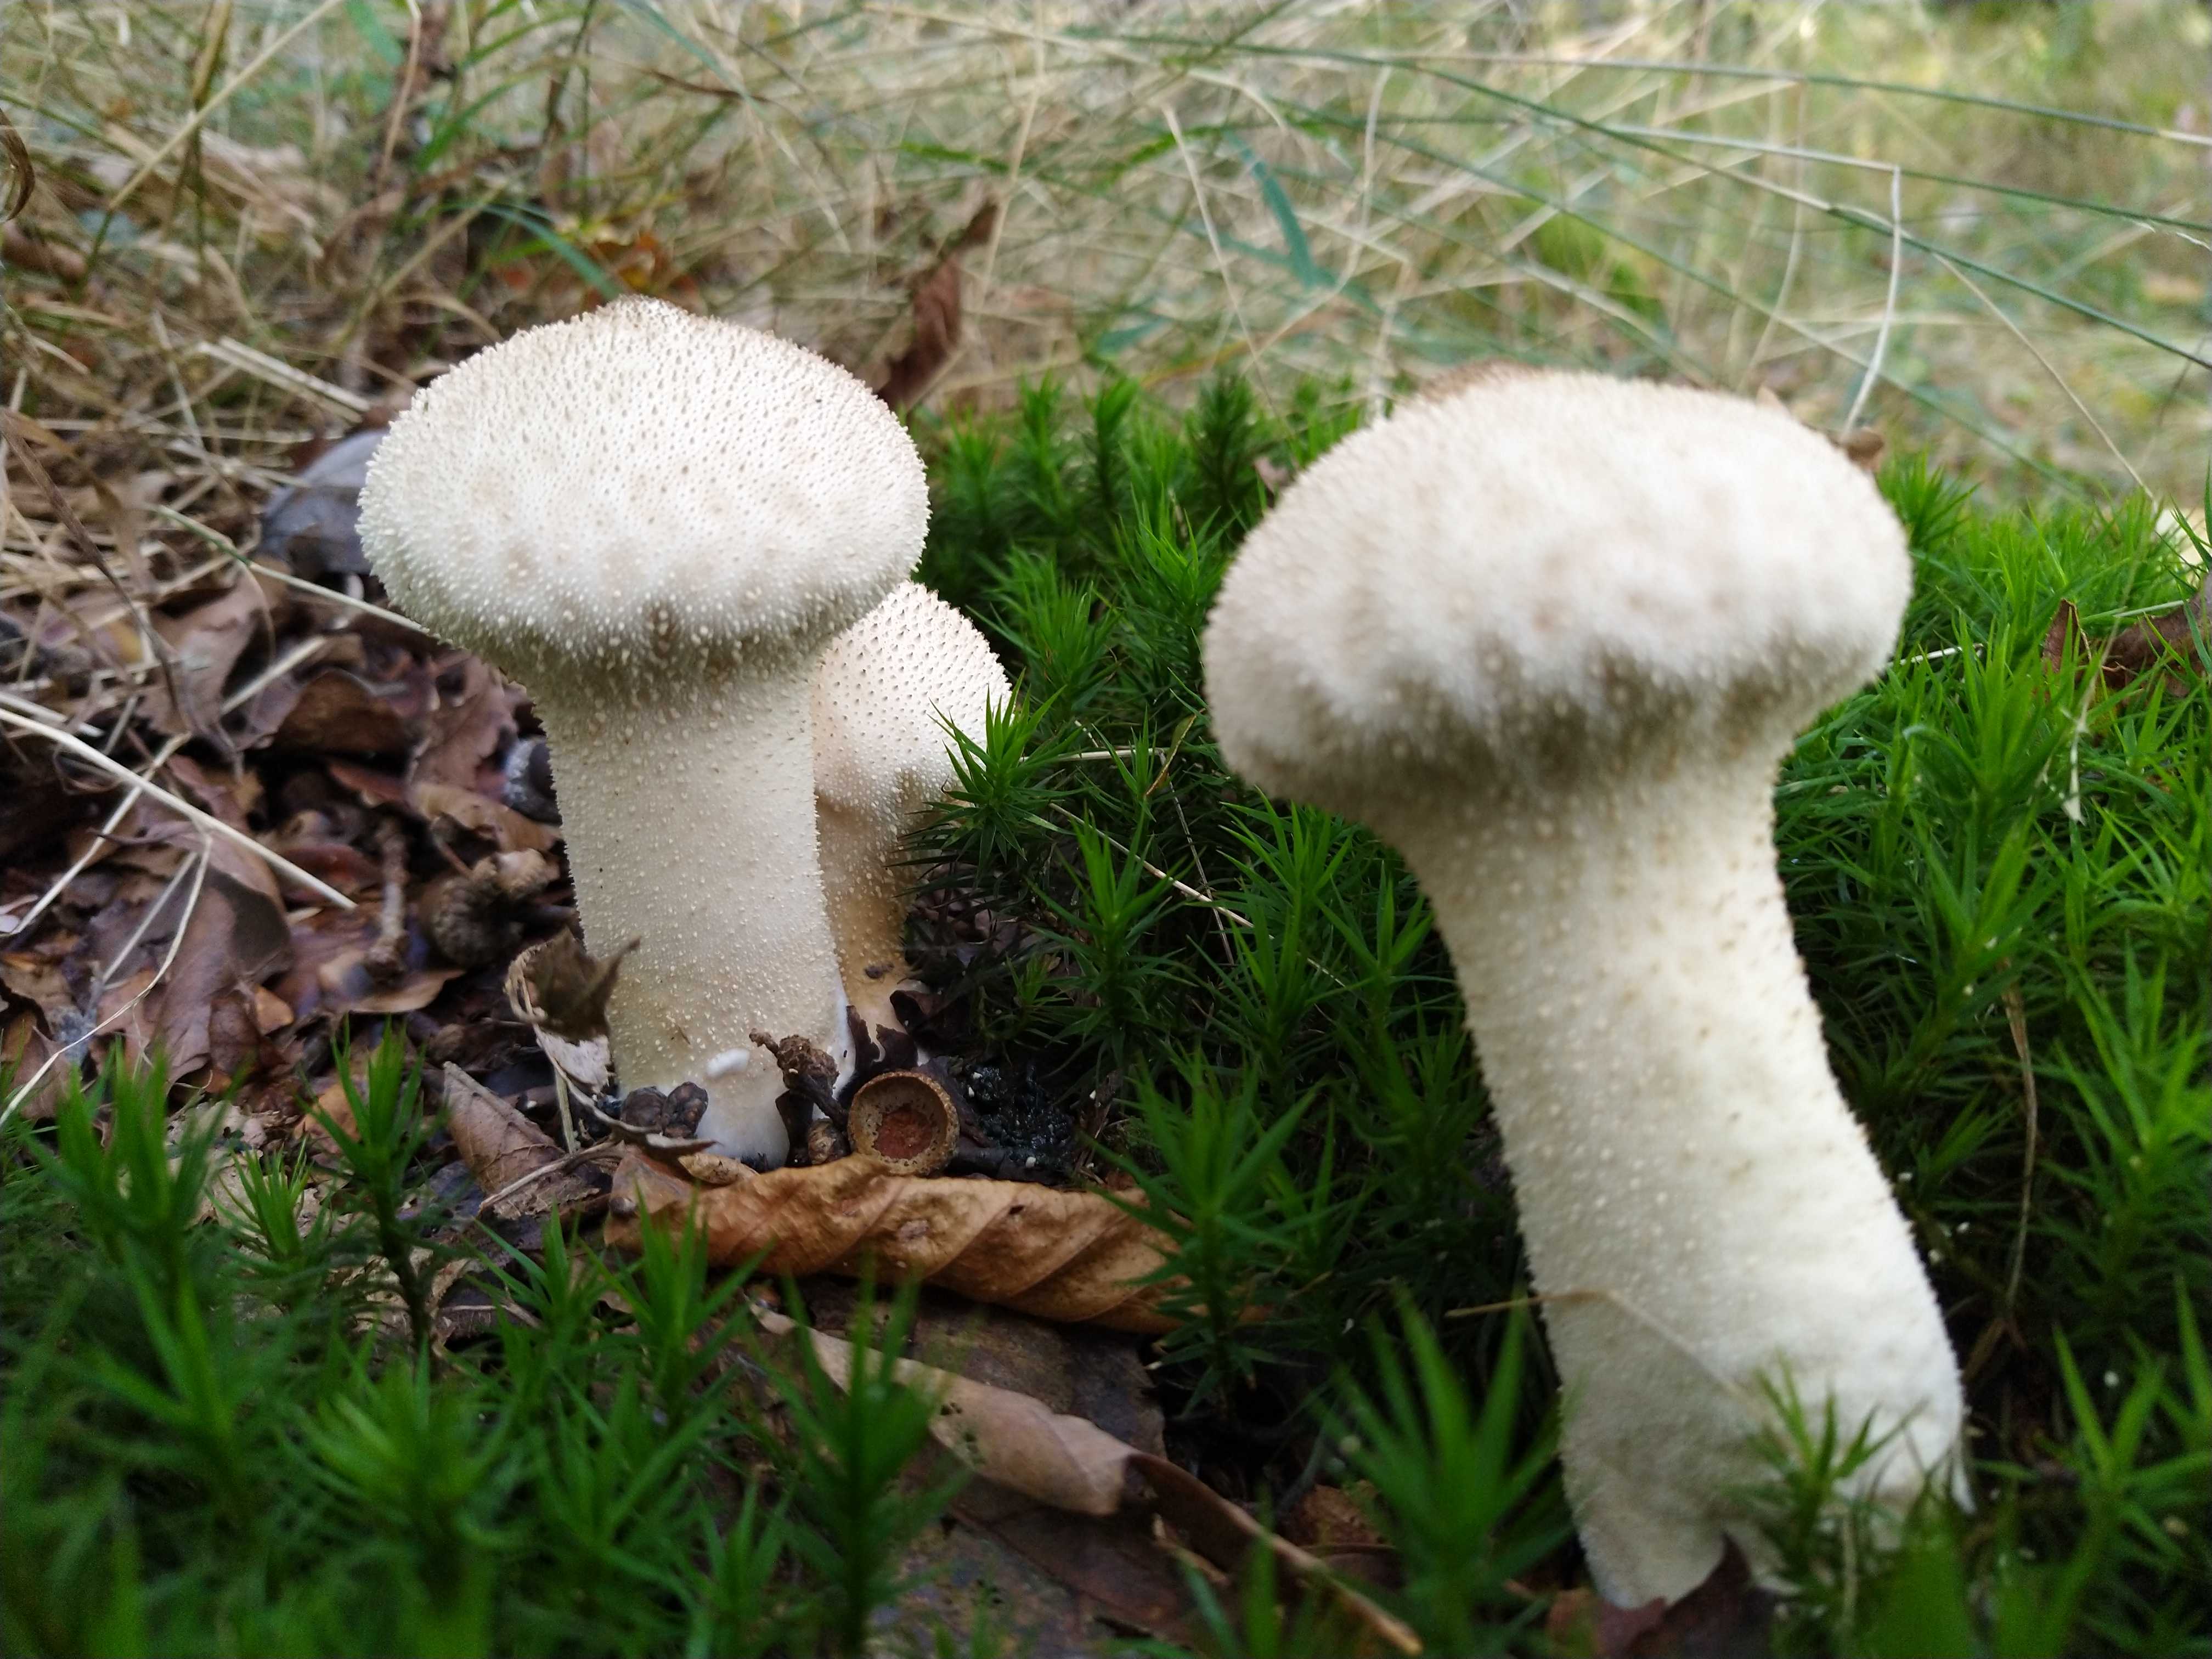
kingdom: Fungi
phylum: Basidiomycota
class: Agaricomycetes
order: Agaricales
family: Lycoperdaceae
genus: Lycoperdon
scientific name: Lycoperdon perlatum
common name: krystal-støvbold
